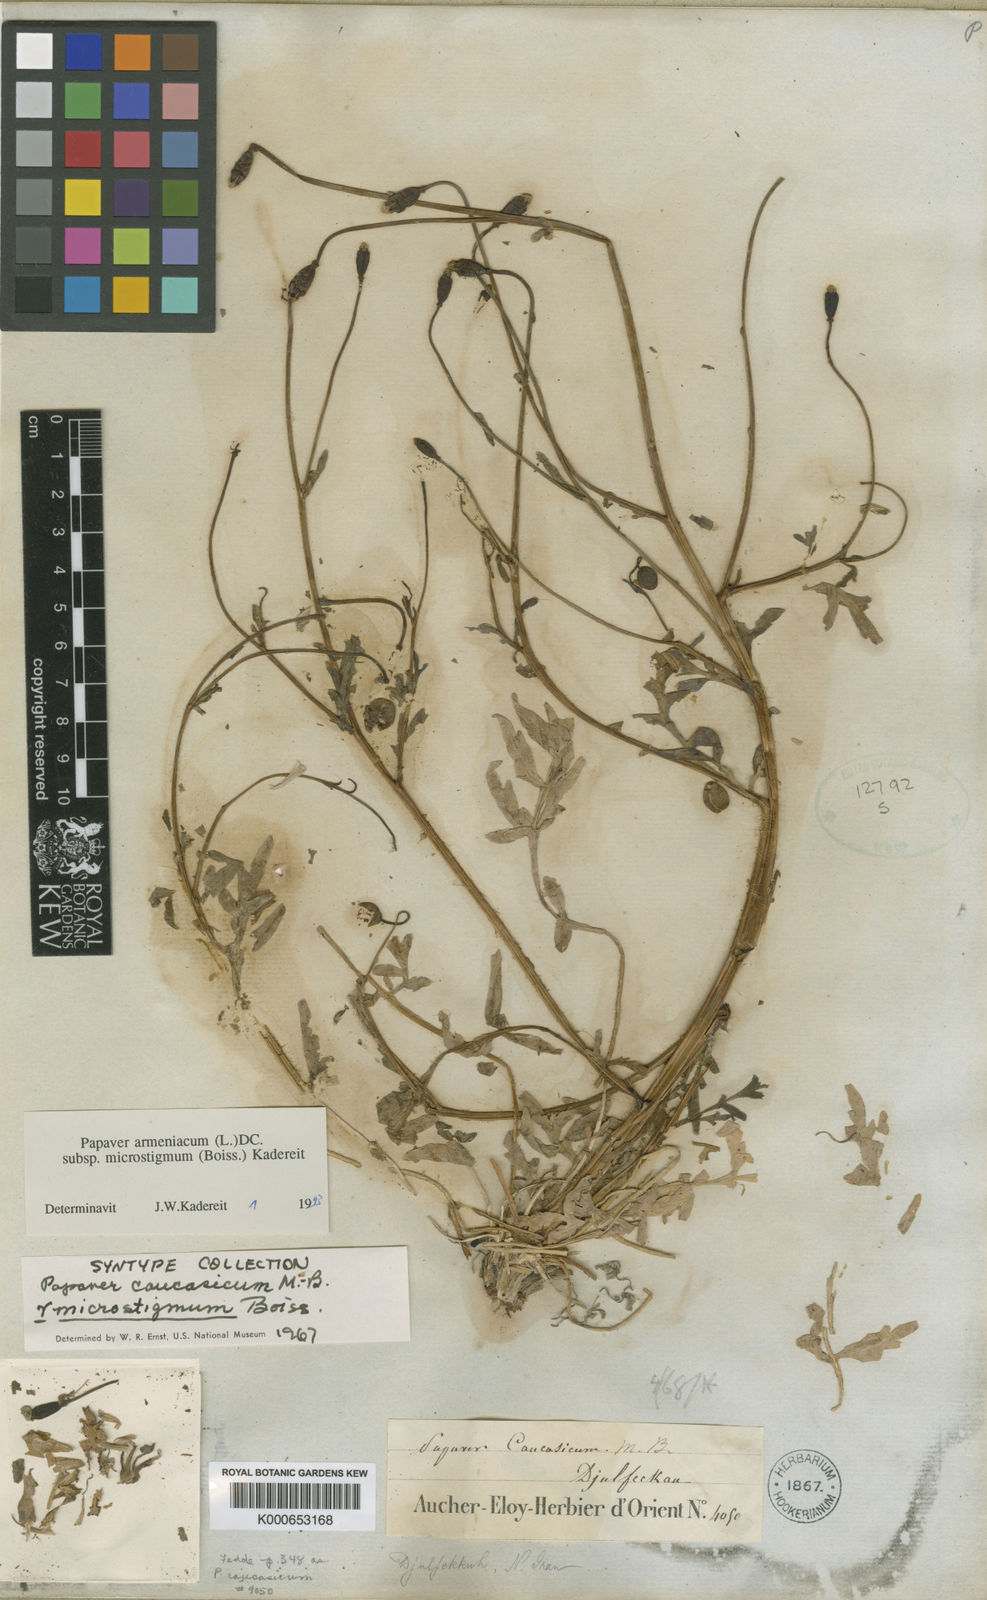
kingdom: Plantae
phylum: Tracheophyta
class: Magnoliopsida
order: Ranunculales
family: Papaveraceae
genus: Papaver
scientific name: Papaver armeniacum
